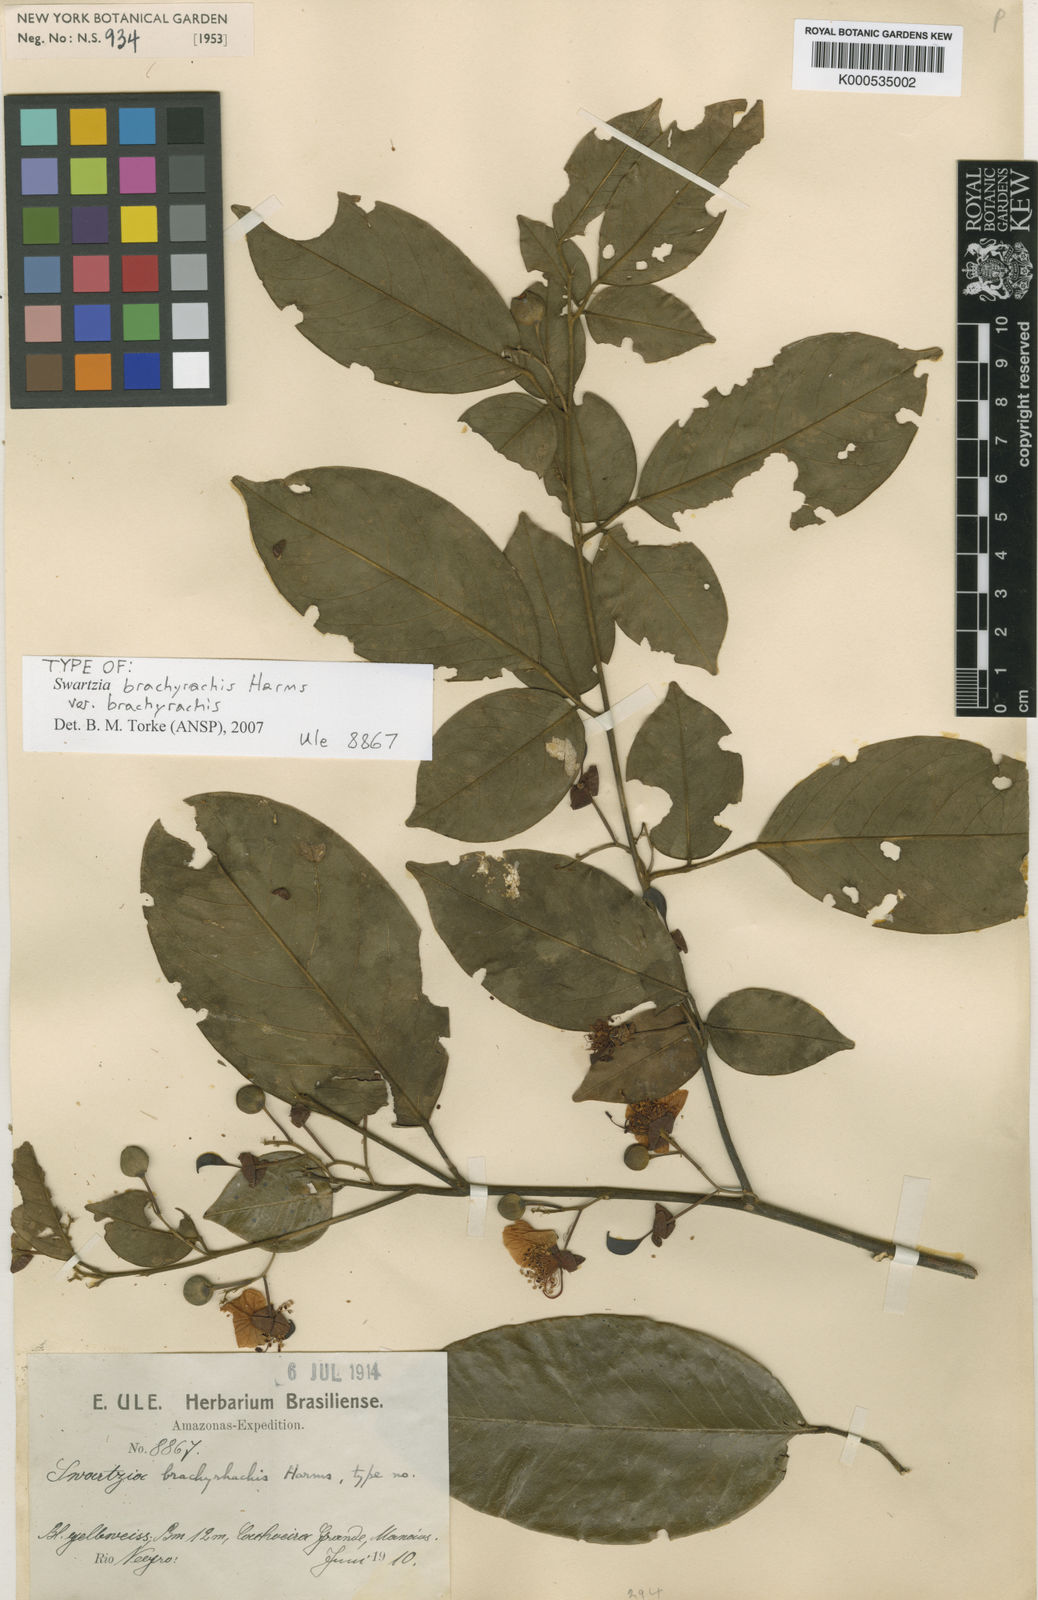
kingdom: Plantae
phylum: Tracheophyta
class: Magnoliopsida
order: Fabales
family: Fabaceae
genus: Swartzia
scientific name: Swartzia
